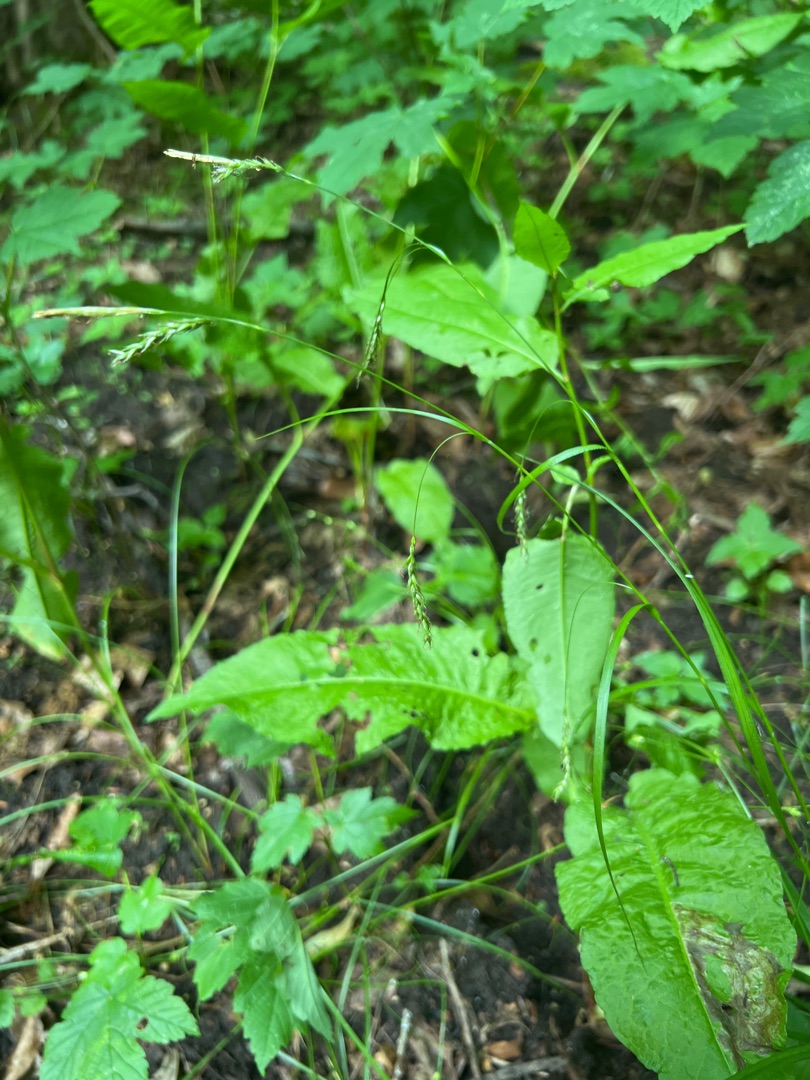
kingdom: Plantae
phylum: Tracheophyta
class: Liliopsida
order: Poales
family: Cyperaceae
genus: Carex
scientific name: Carex sylvatica
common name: Skov-star
